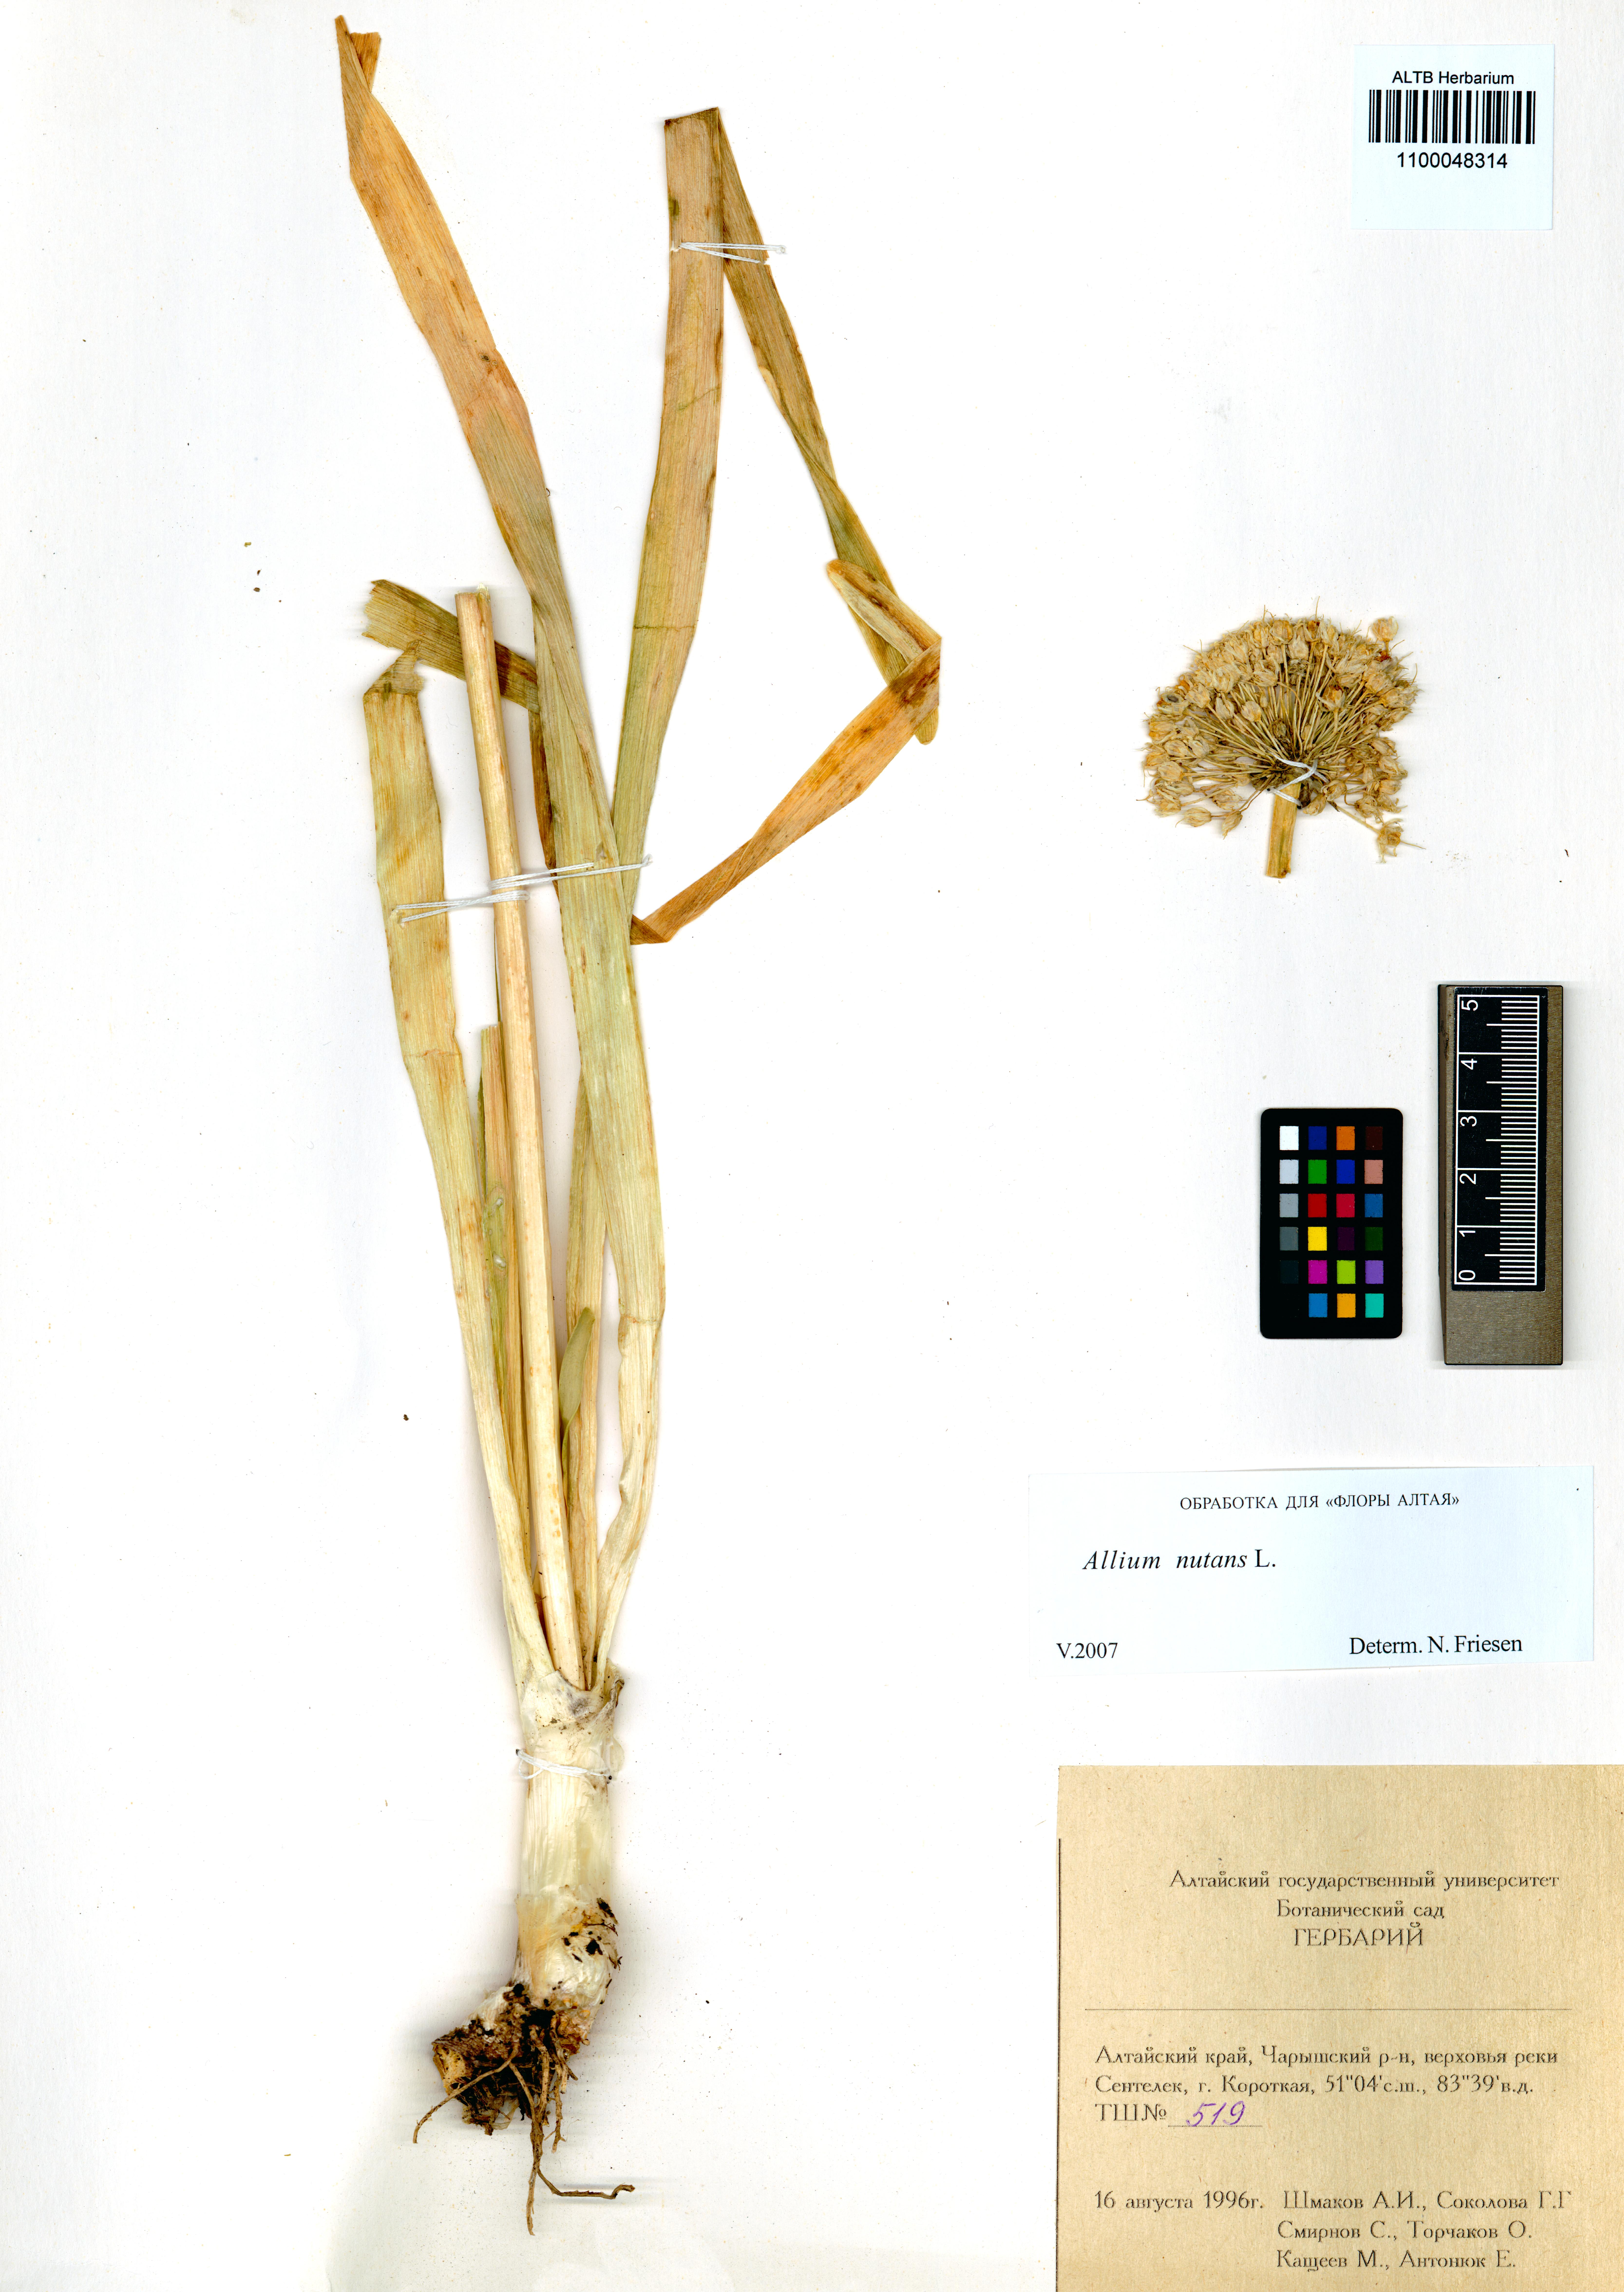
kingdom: Plantae
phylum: Tracheophyta
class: Liliopsida
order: Asparagales
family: Amaryllidaceae
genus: Allium
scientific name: Allium nutans
